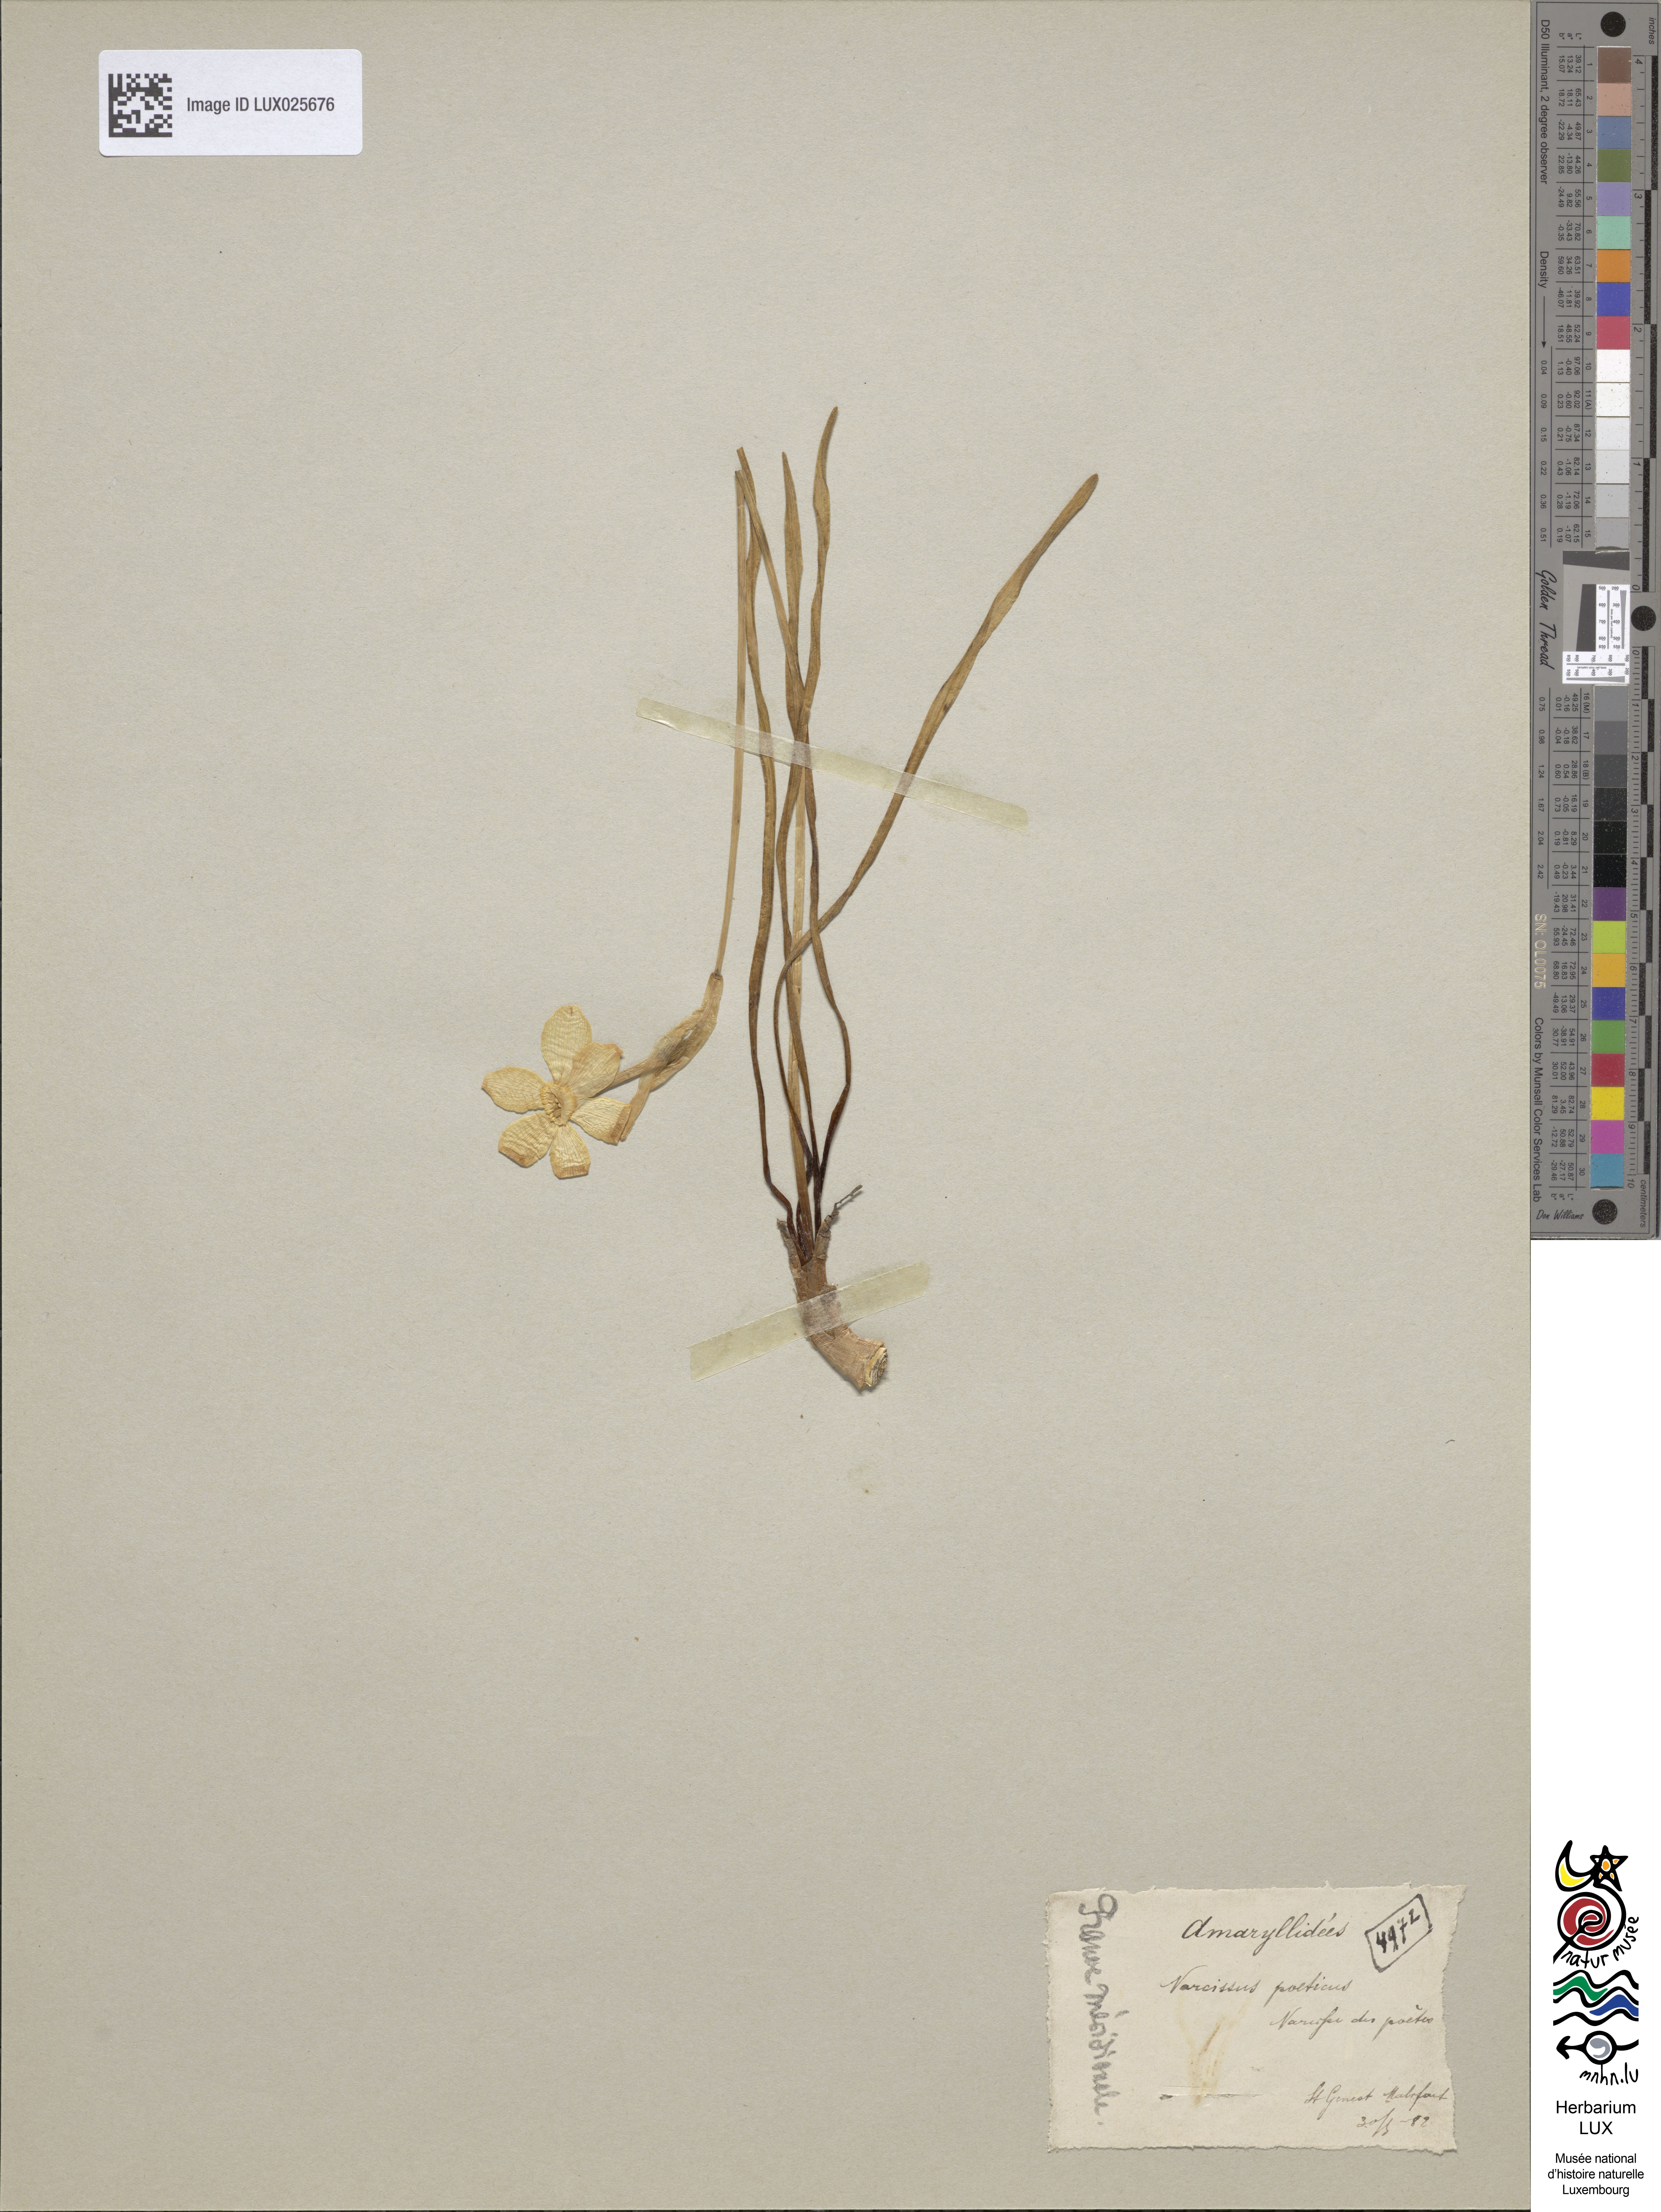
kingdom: Plantae
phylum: Tracheophyta
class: Liliopsida
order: Asparagales
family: Amaryllidaceae
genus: Narcissus
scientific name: Narcissus poeticus
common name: Pheasant's-eye daffodil
